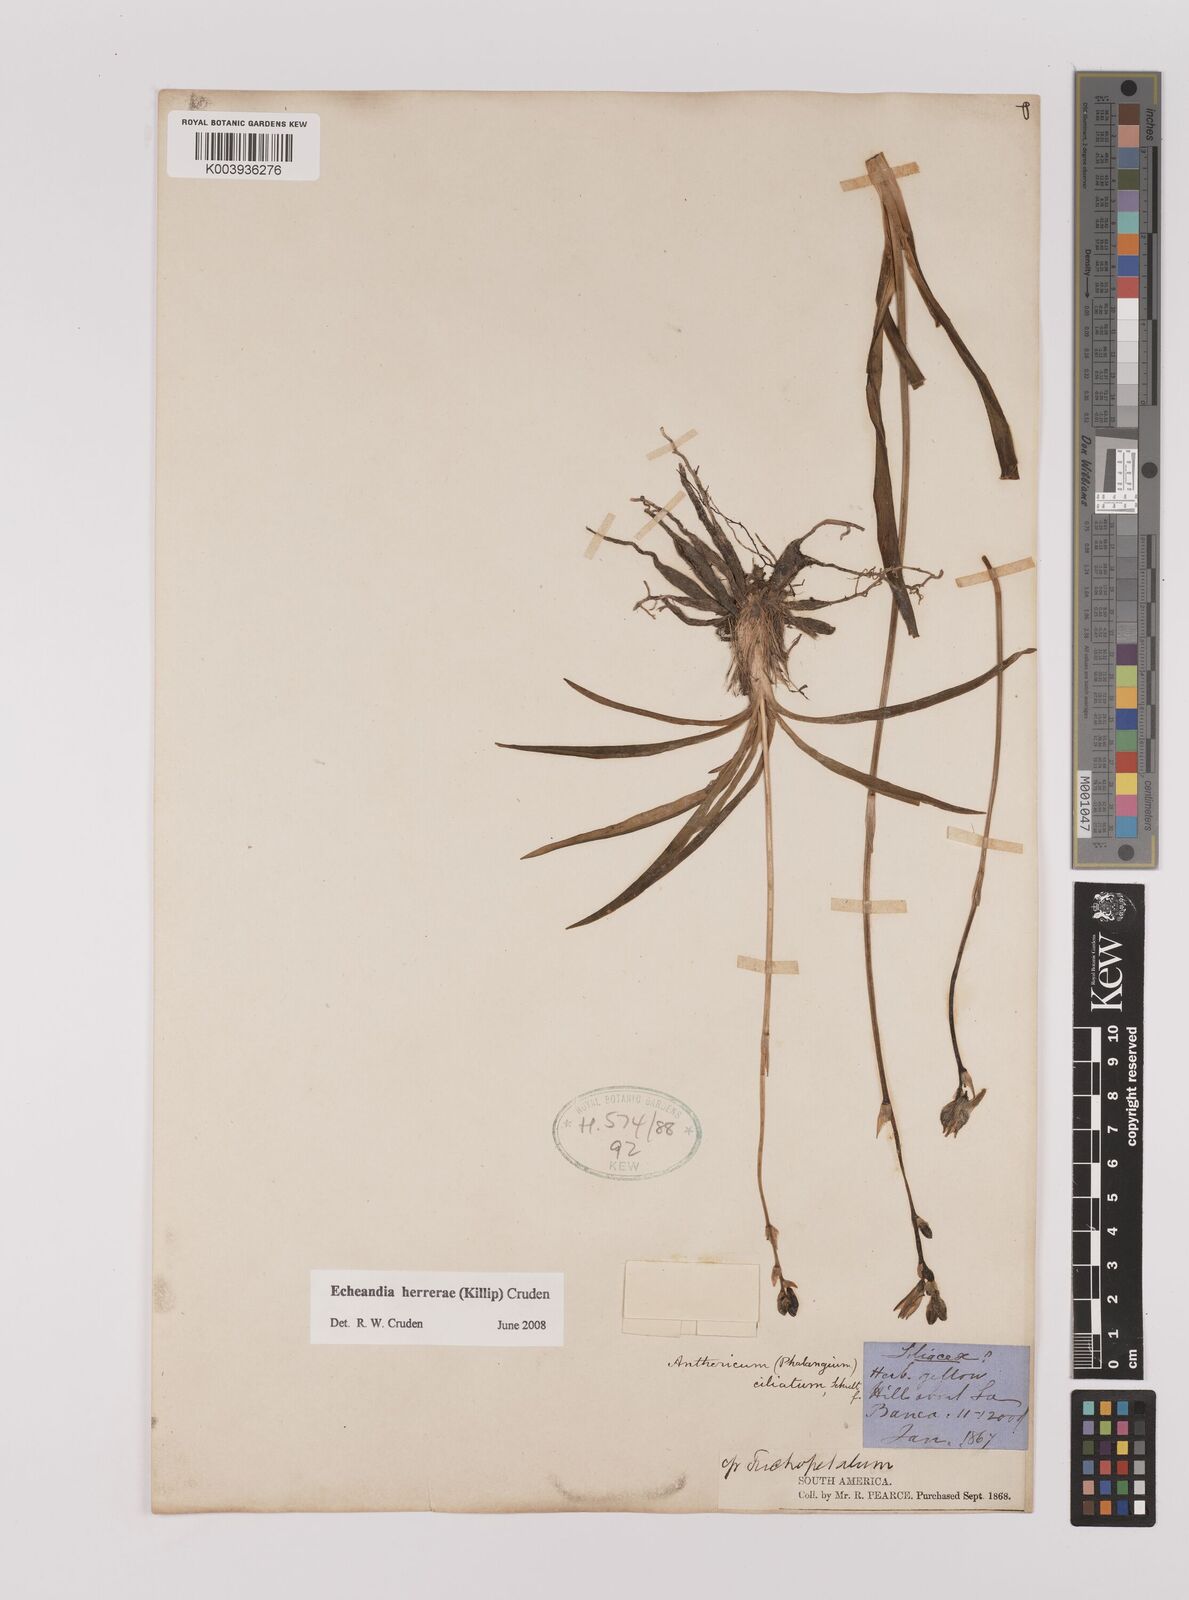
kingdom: Plantae
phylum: Tracheophyta
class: Liliopsida
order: Asparagales
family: Asparagaceae
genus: Echeandia
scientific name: Echeandia herrerae
